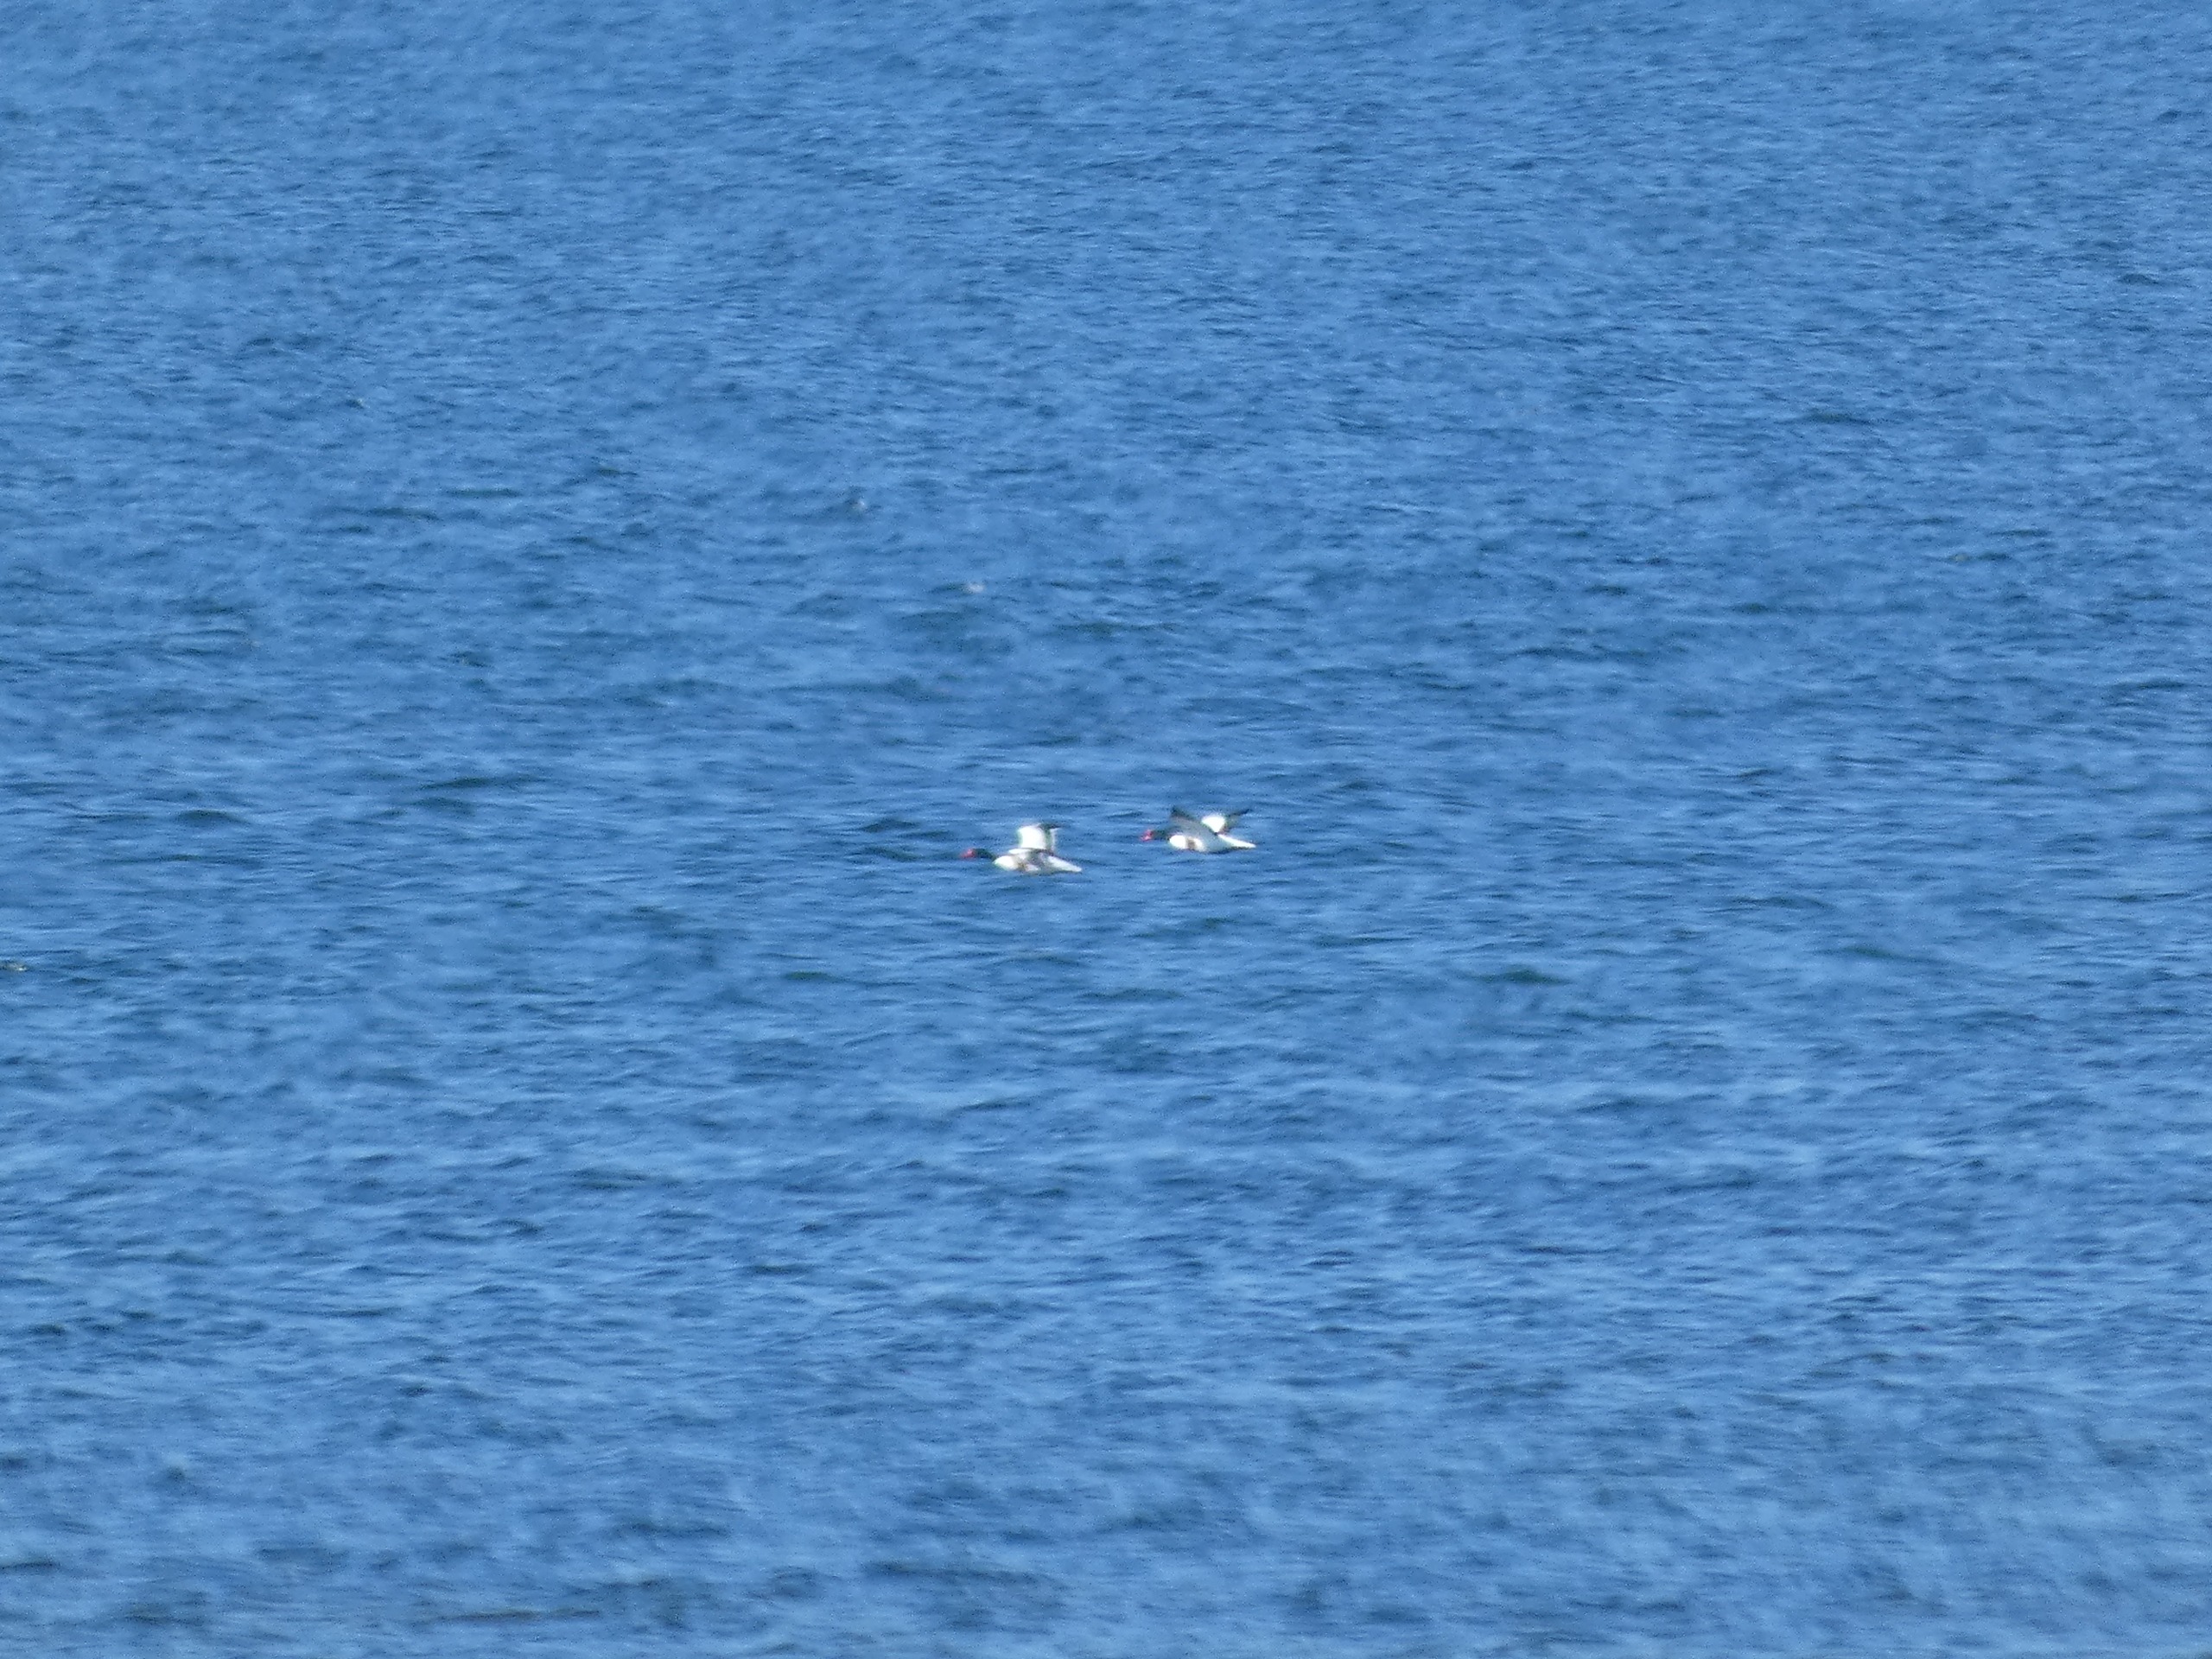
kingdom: Animalia
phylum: Chordata
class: Aves
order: Anseriformes
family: Anatidae
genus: Tadorna
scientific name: Tadorna tadorna
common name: Gravand
